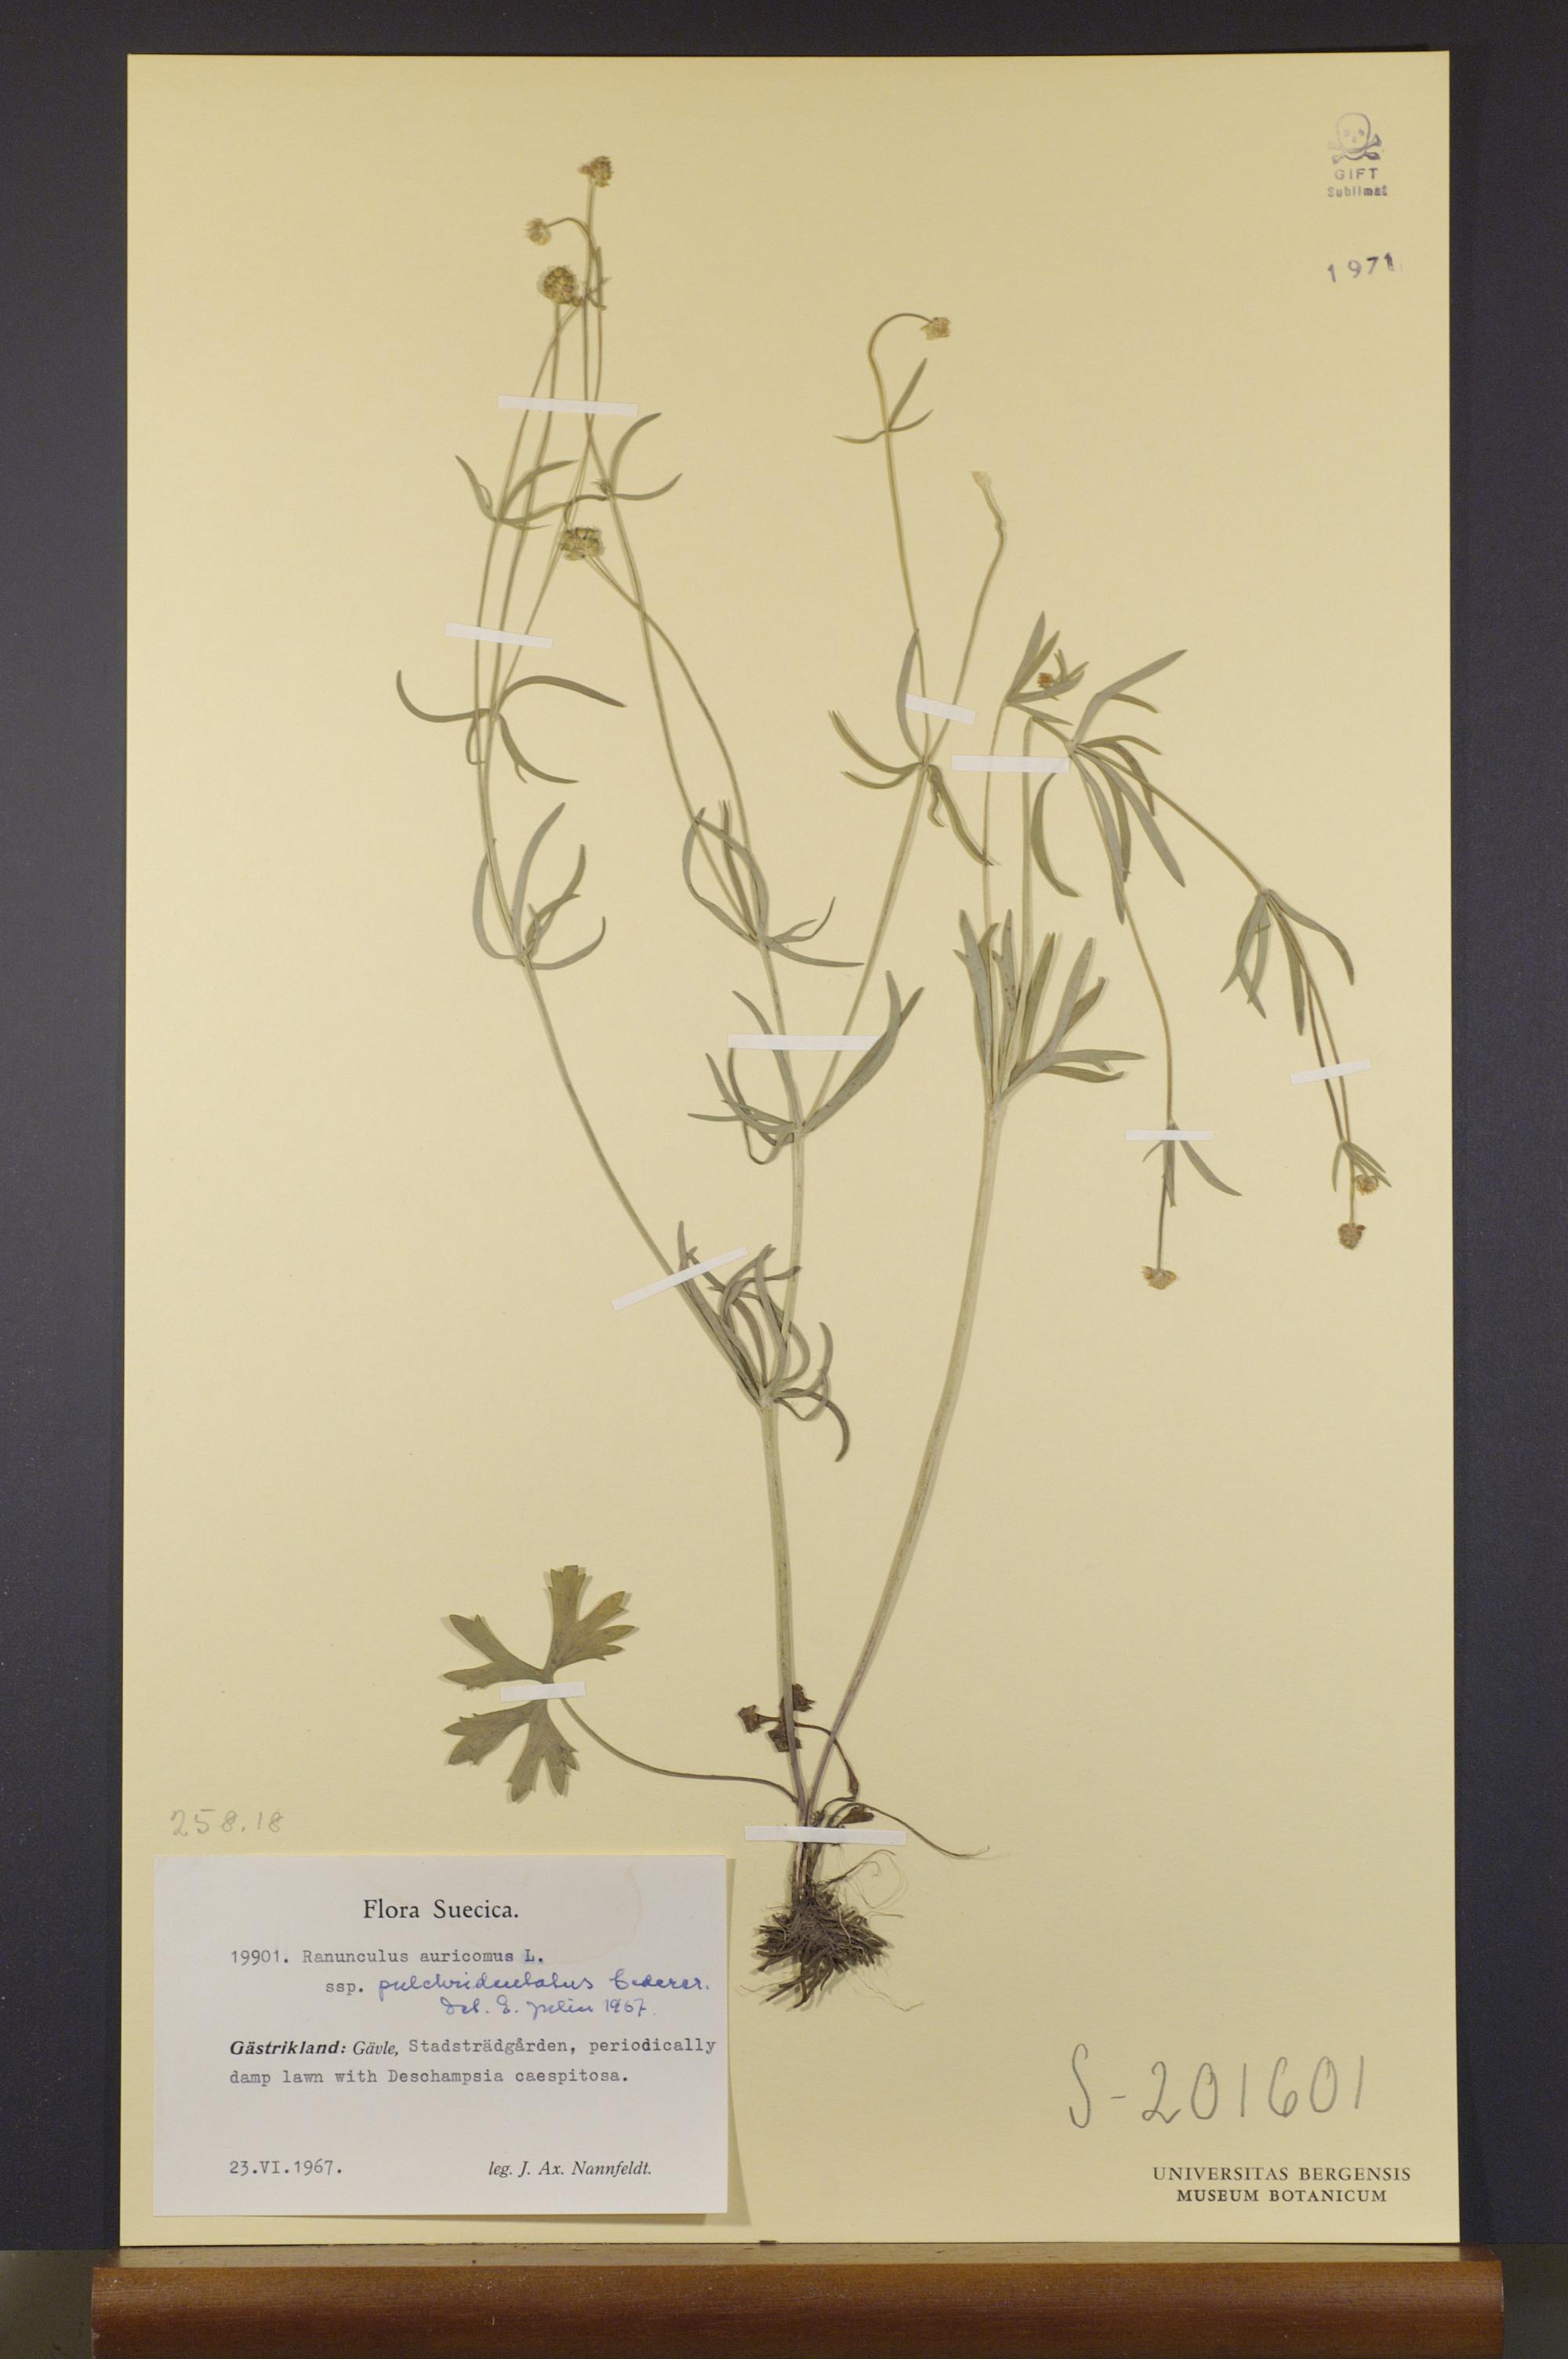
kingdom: Plantae
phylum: Tracheophyta
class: Magnoliopsida
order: Ranunculales
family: Ranunculaceae
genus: Ranunculus
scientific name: Ranunculus pulchridentatus
